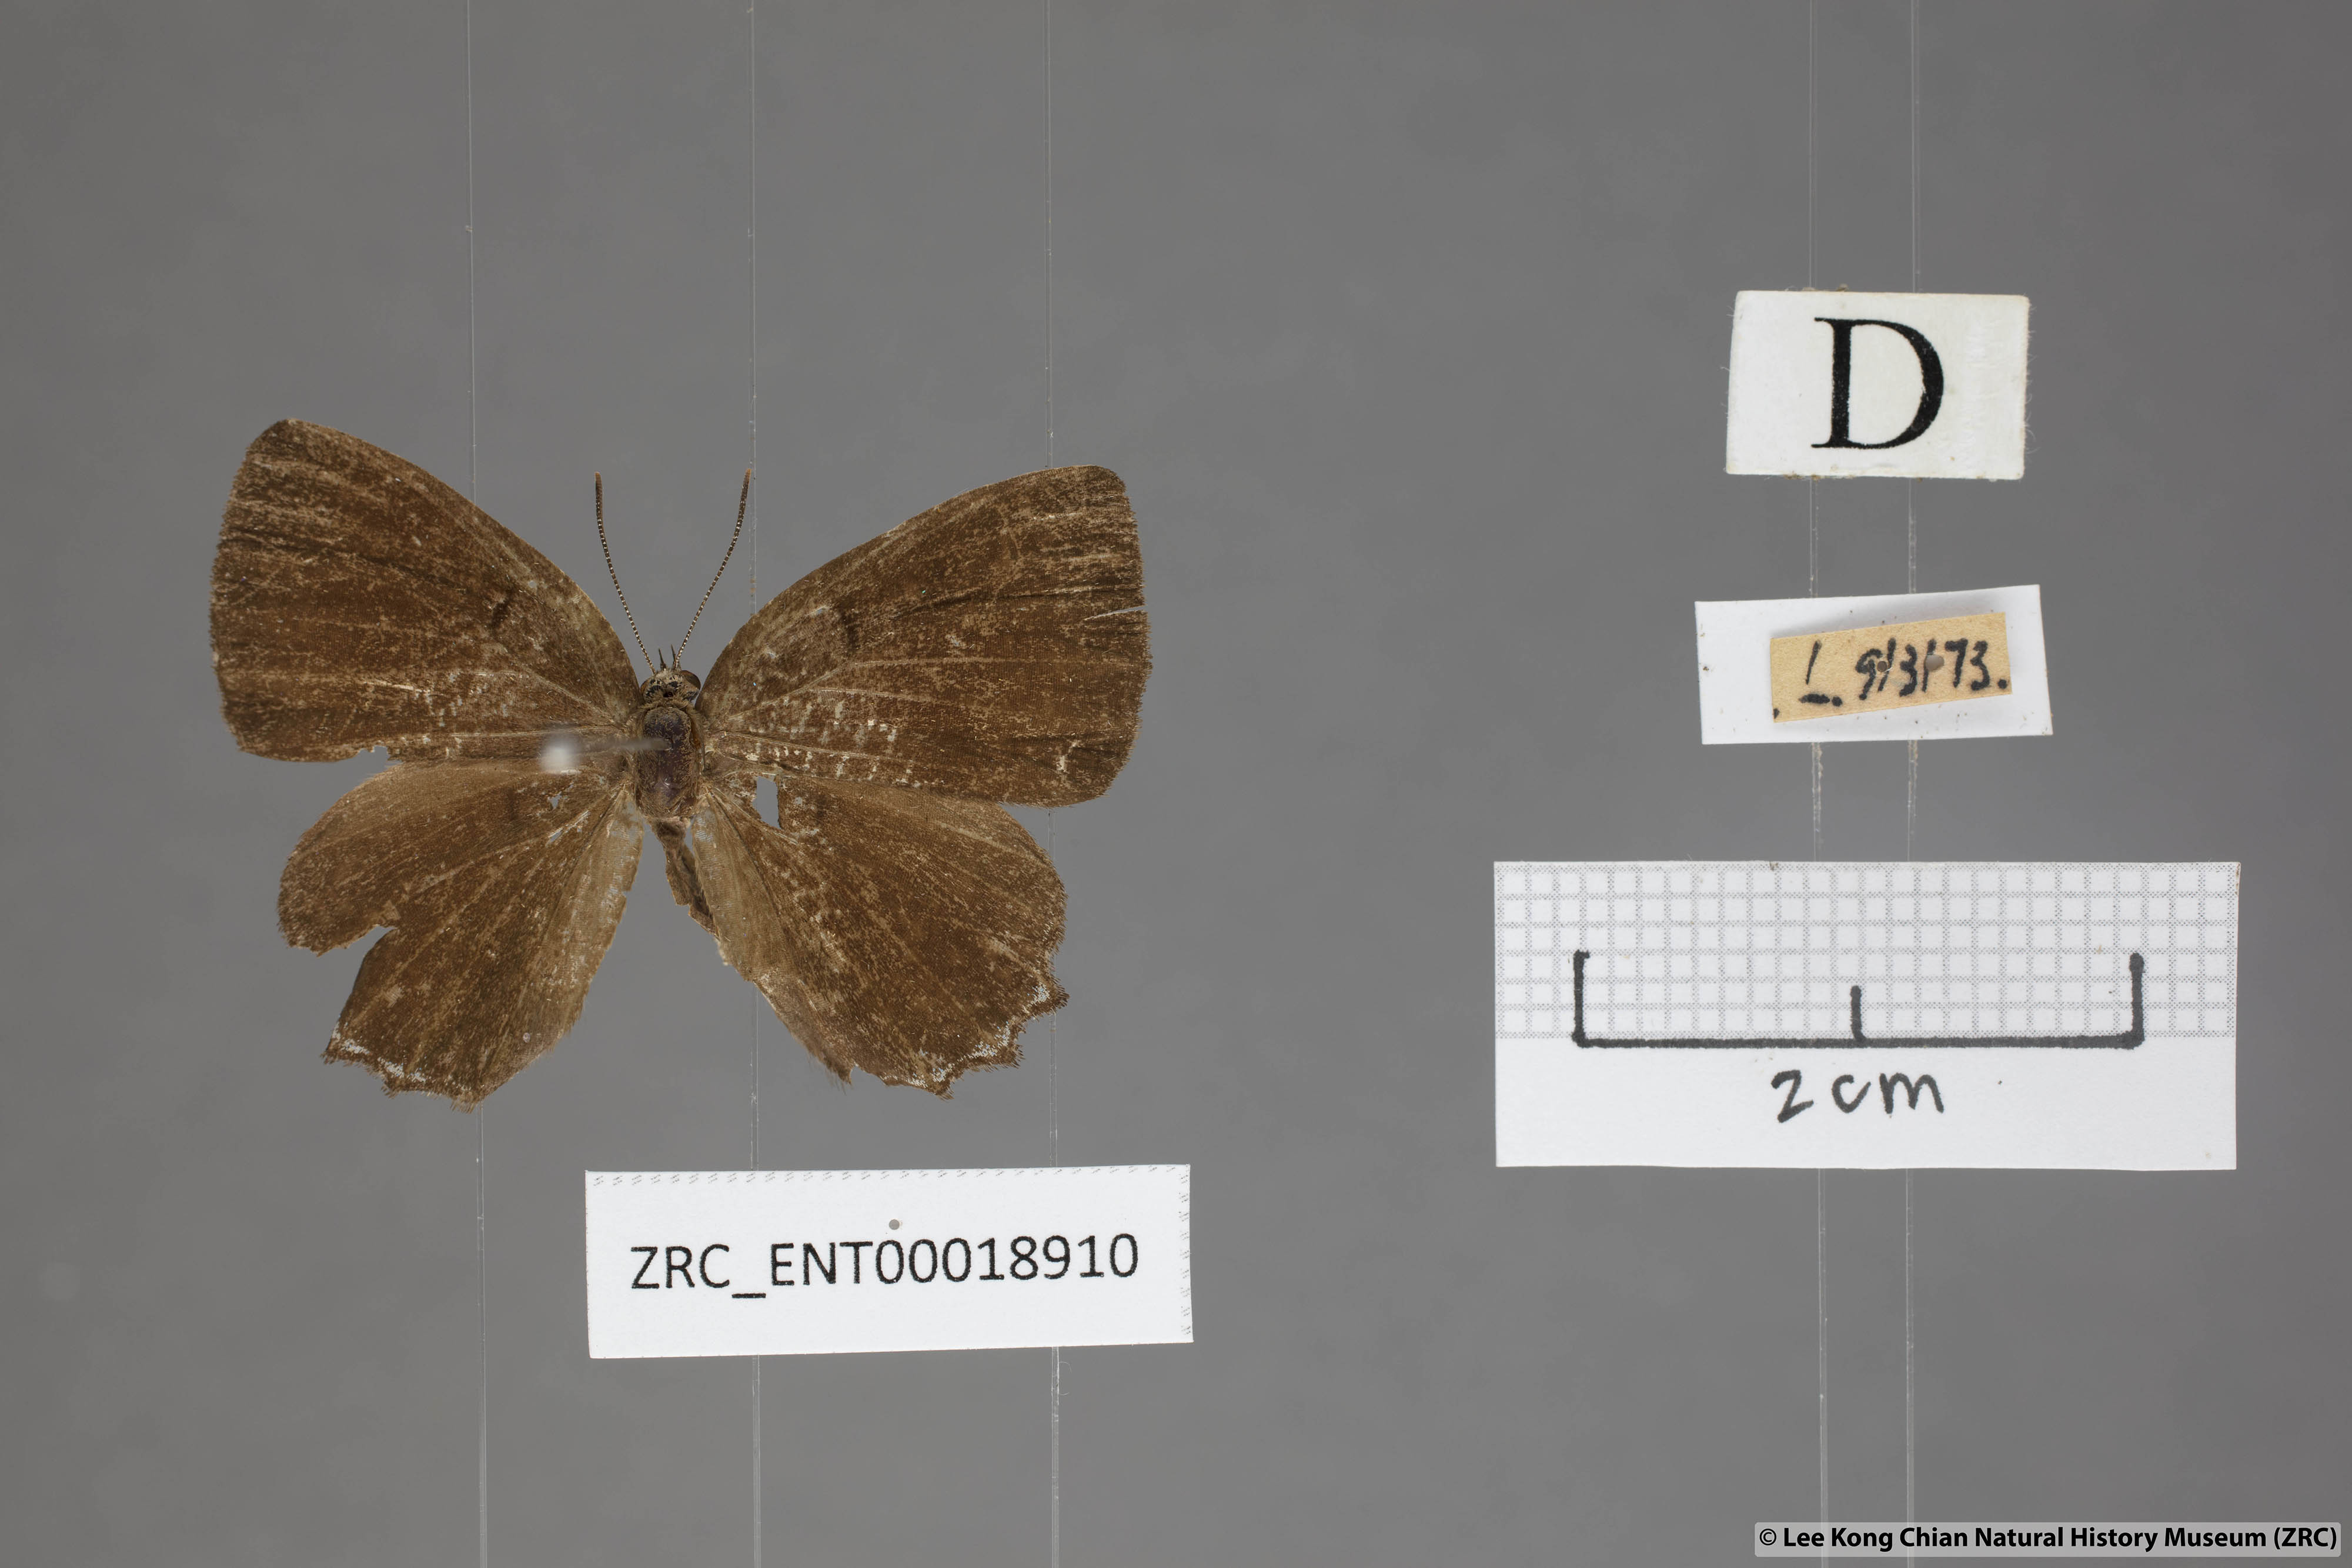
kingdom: Animalia
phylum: Arthropoda
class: Insecta
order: Lepidoptera
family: Lycaenidae
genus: Simiskina
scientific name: Simiskina
